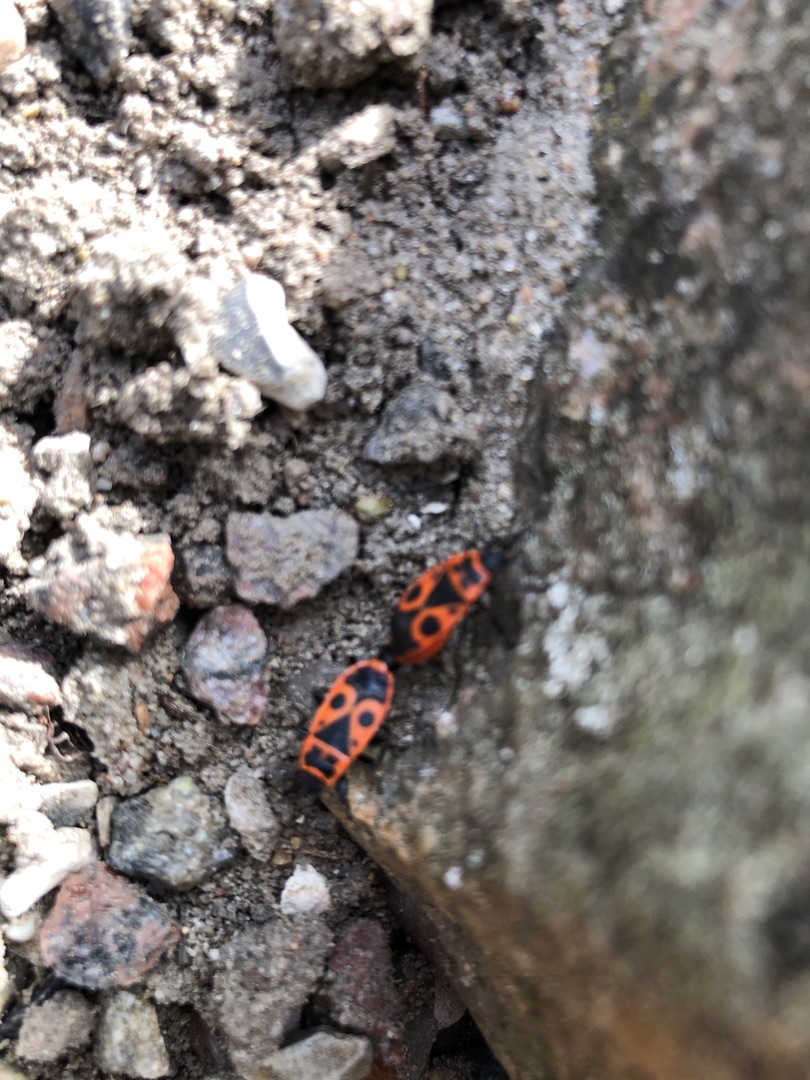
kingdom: Animalia
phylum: Arthropoda
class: Insecta
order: Hemiptera
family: Pyrrhocoridae
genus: Pyrrhocoris
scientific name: Pyrrhocoris apterus
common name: Ildtæge
